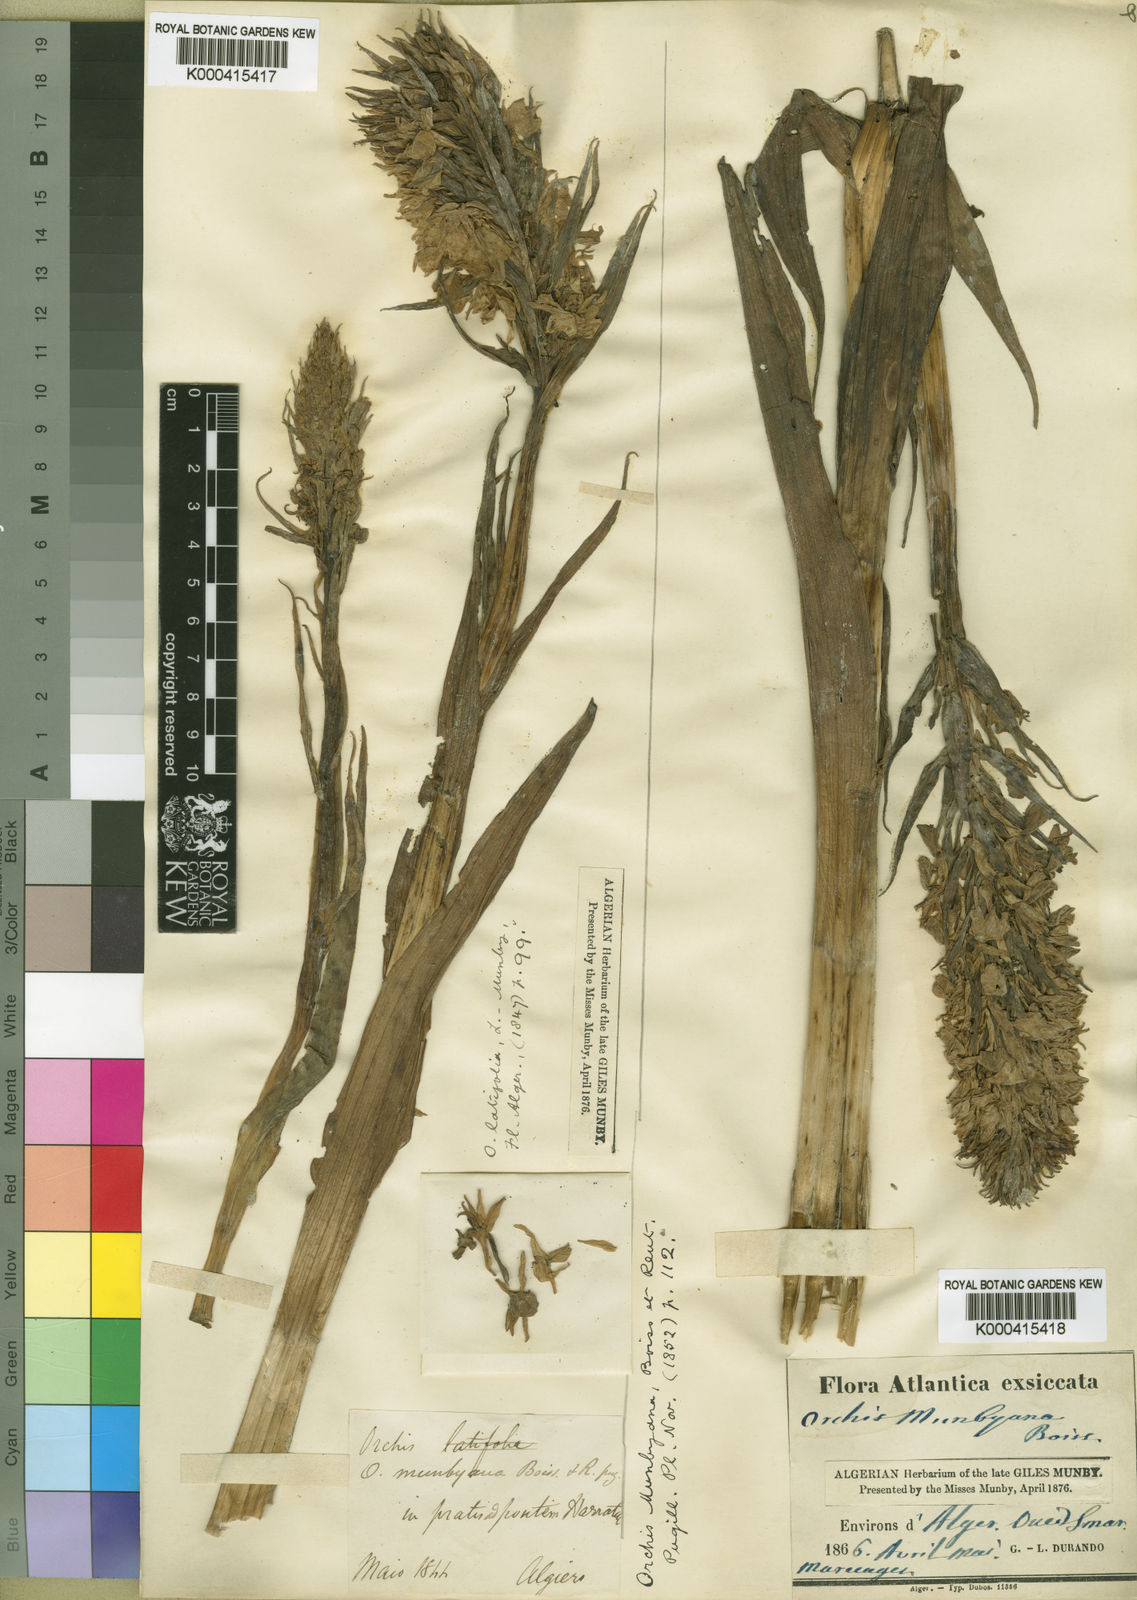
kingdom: Plantae
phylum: Tracheophyta
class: Liliopsida
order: Asparagales
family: Orchidaceae
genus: Dactylorhiza
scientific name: Dactylorhiza elata
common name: Stately dactylorhiza
